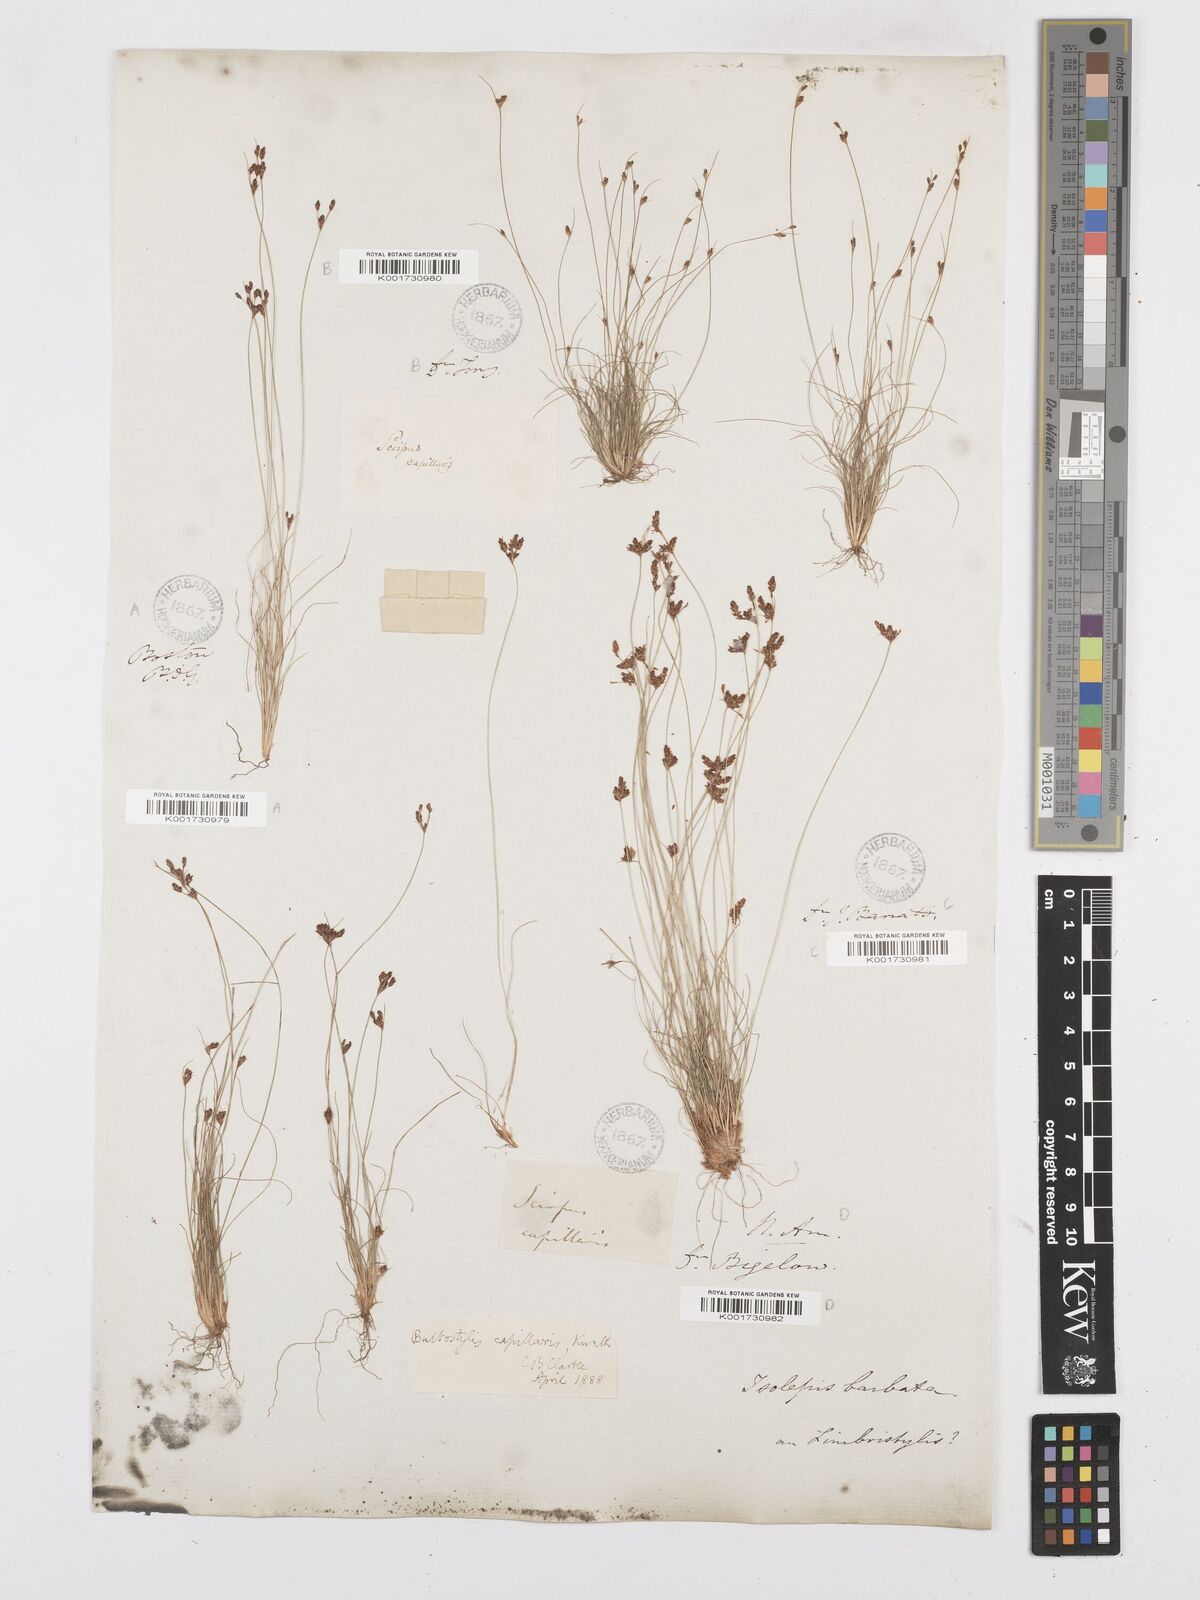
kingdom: Plantae
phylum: Tracheophyta
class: Liliopsida
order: Poales
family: Cyperaceae
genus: Bulbostylis
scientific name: Bulbostylis capillaris
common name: Densetuft hairsedge
